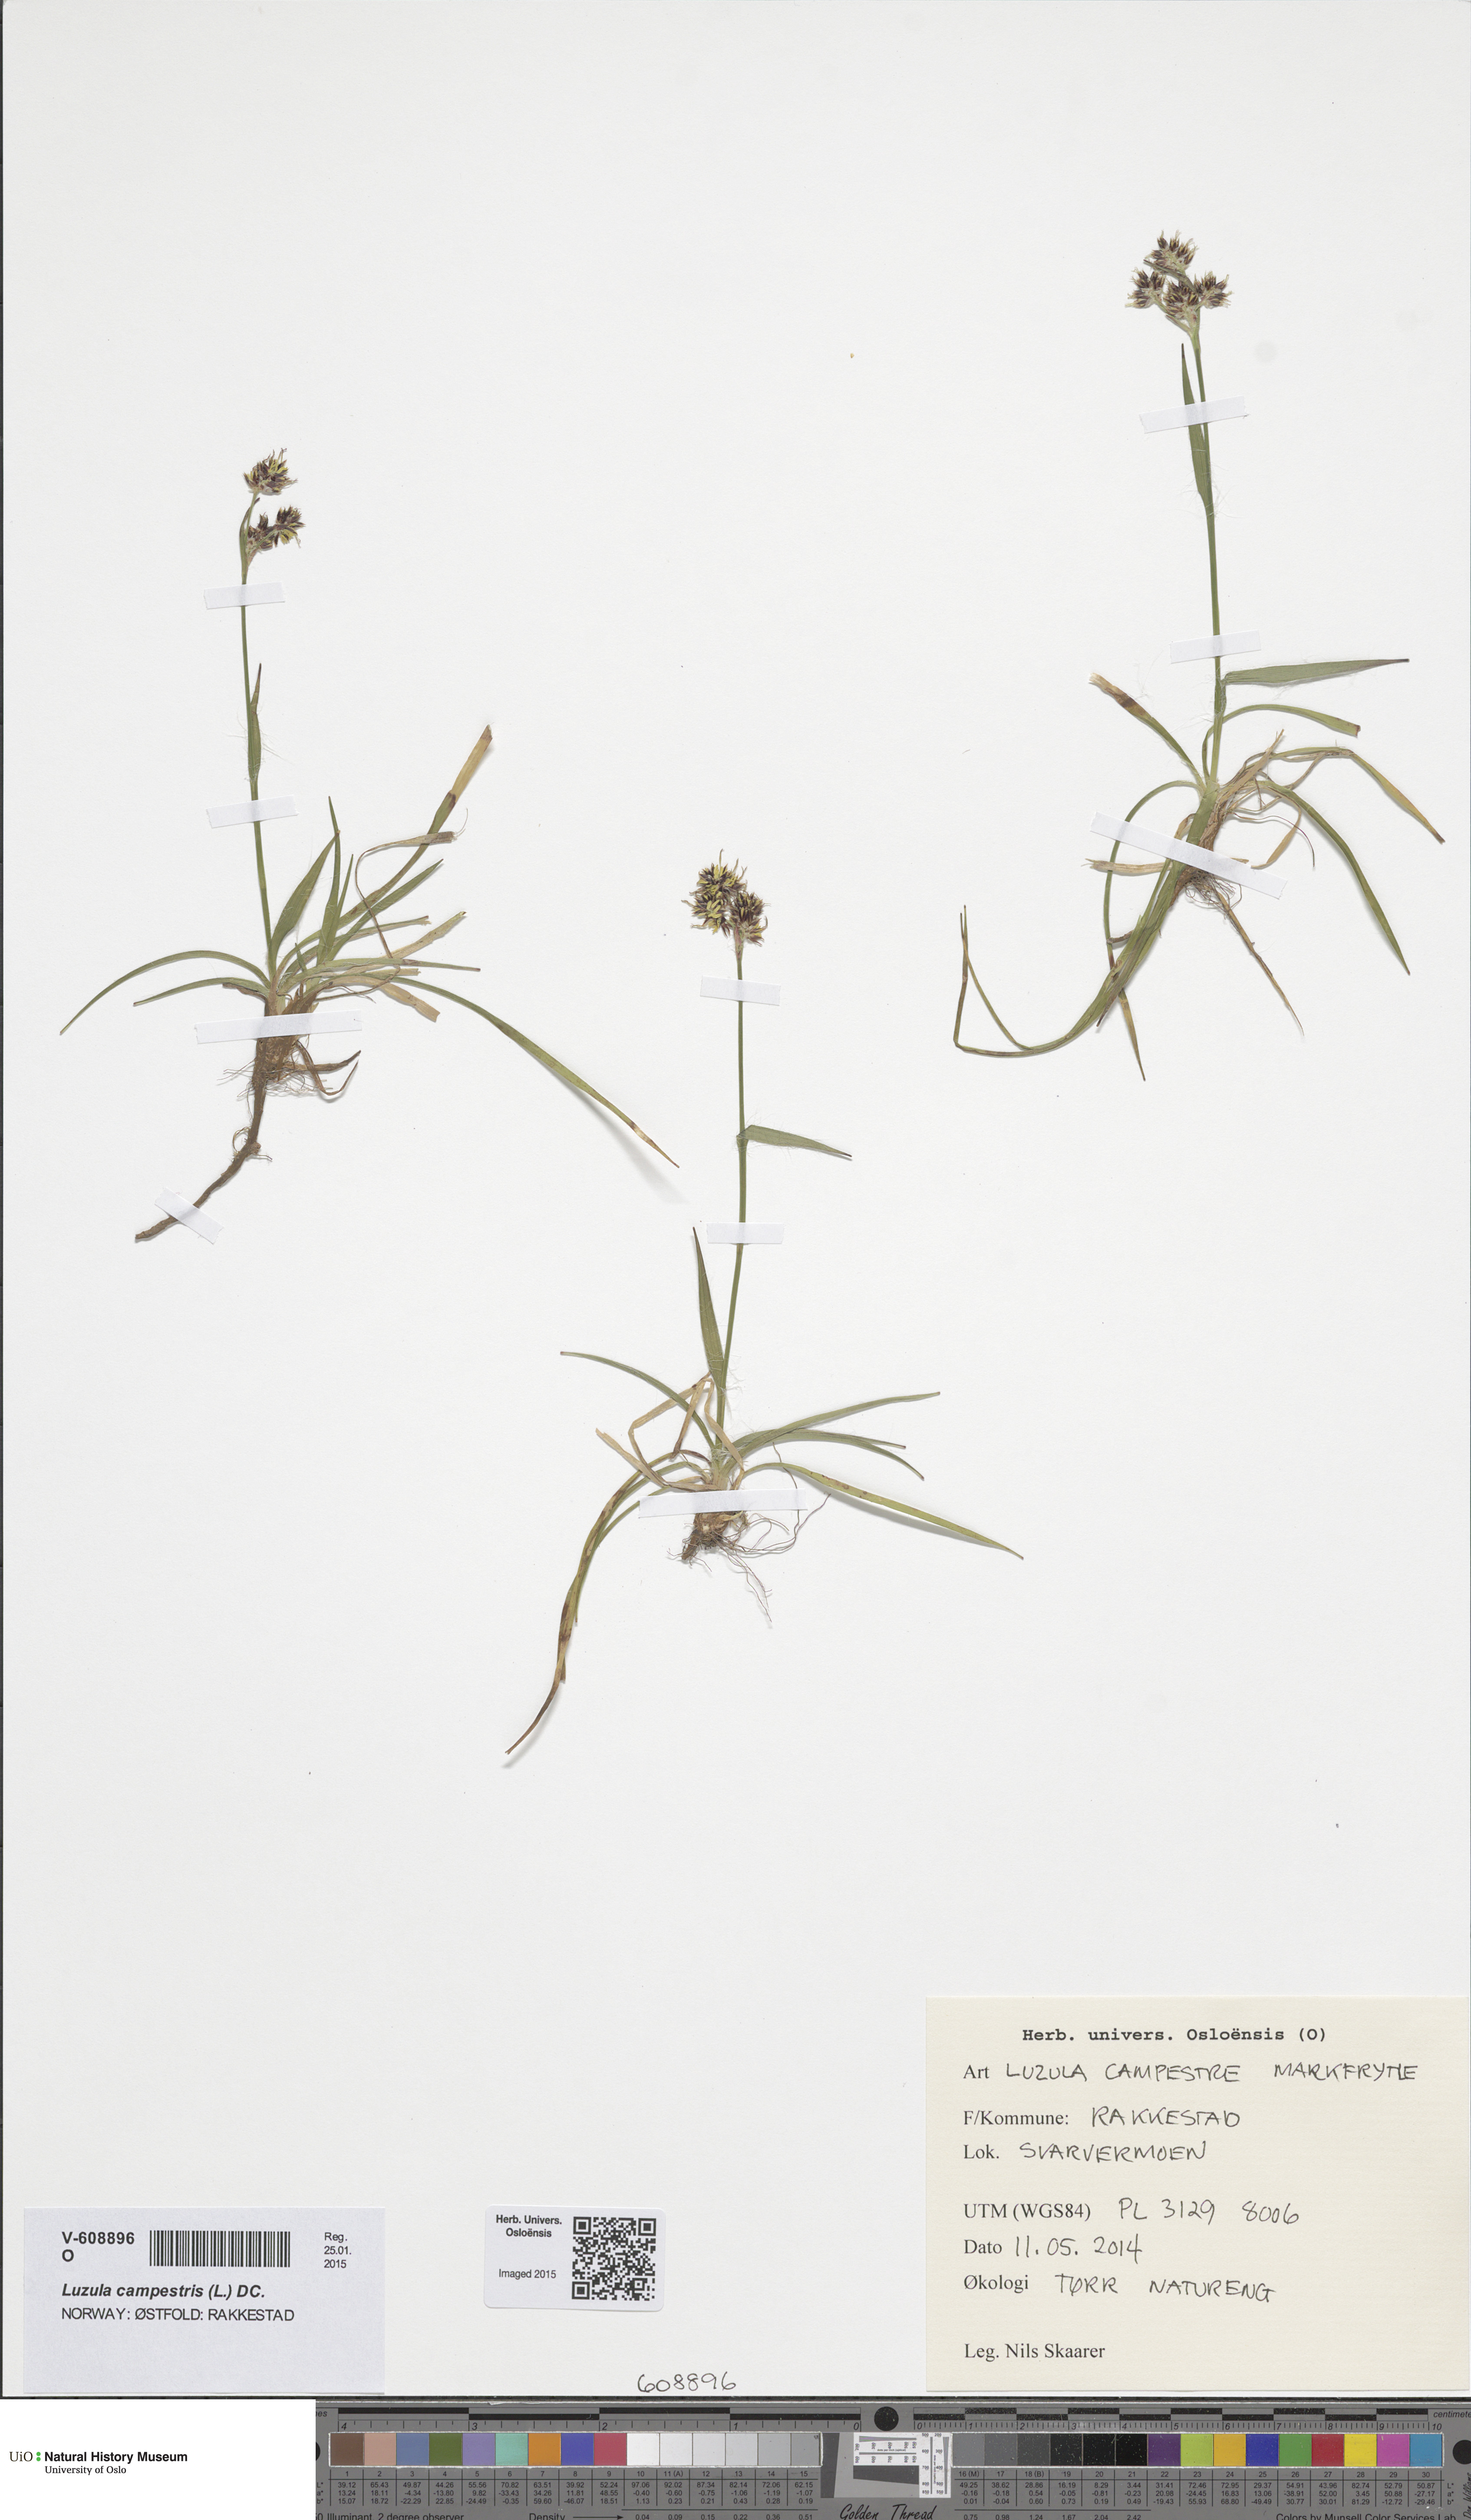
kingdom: Plantae
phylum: Tracheophyta
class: Liliopsida
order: Poales
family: Juncaceae
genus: Luzula
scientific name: Luzula campestris
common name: Field wood-rush
